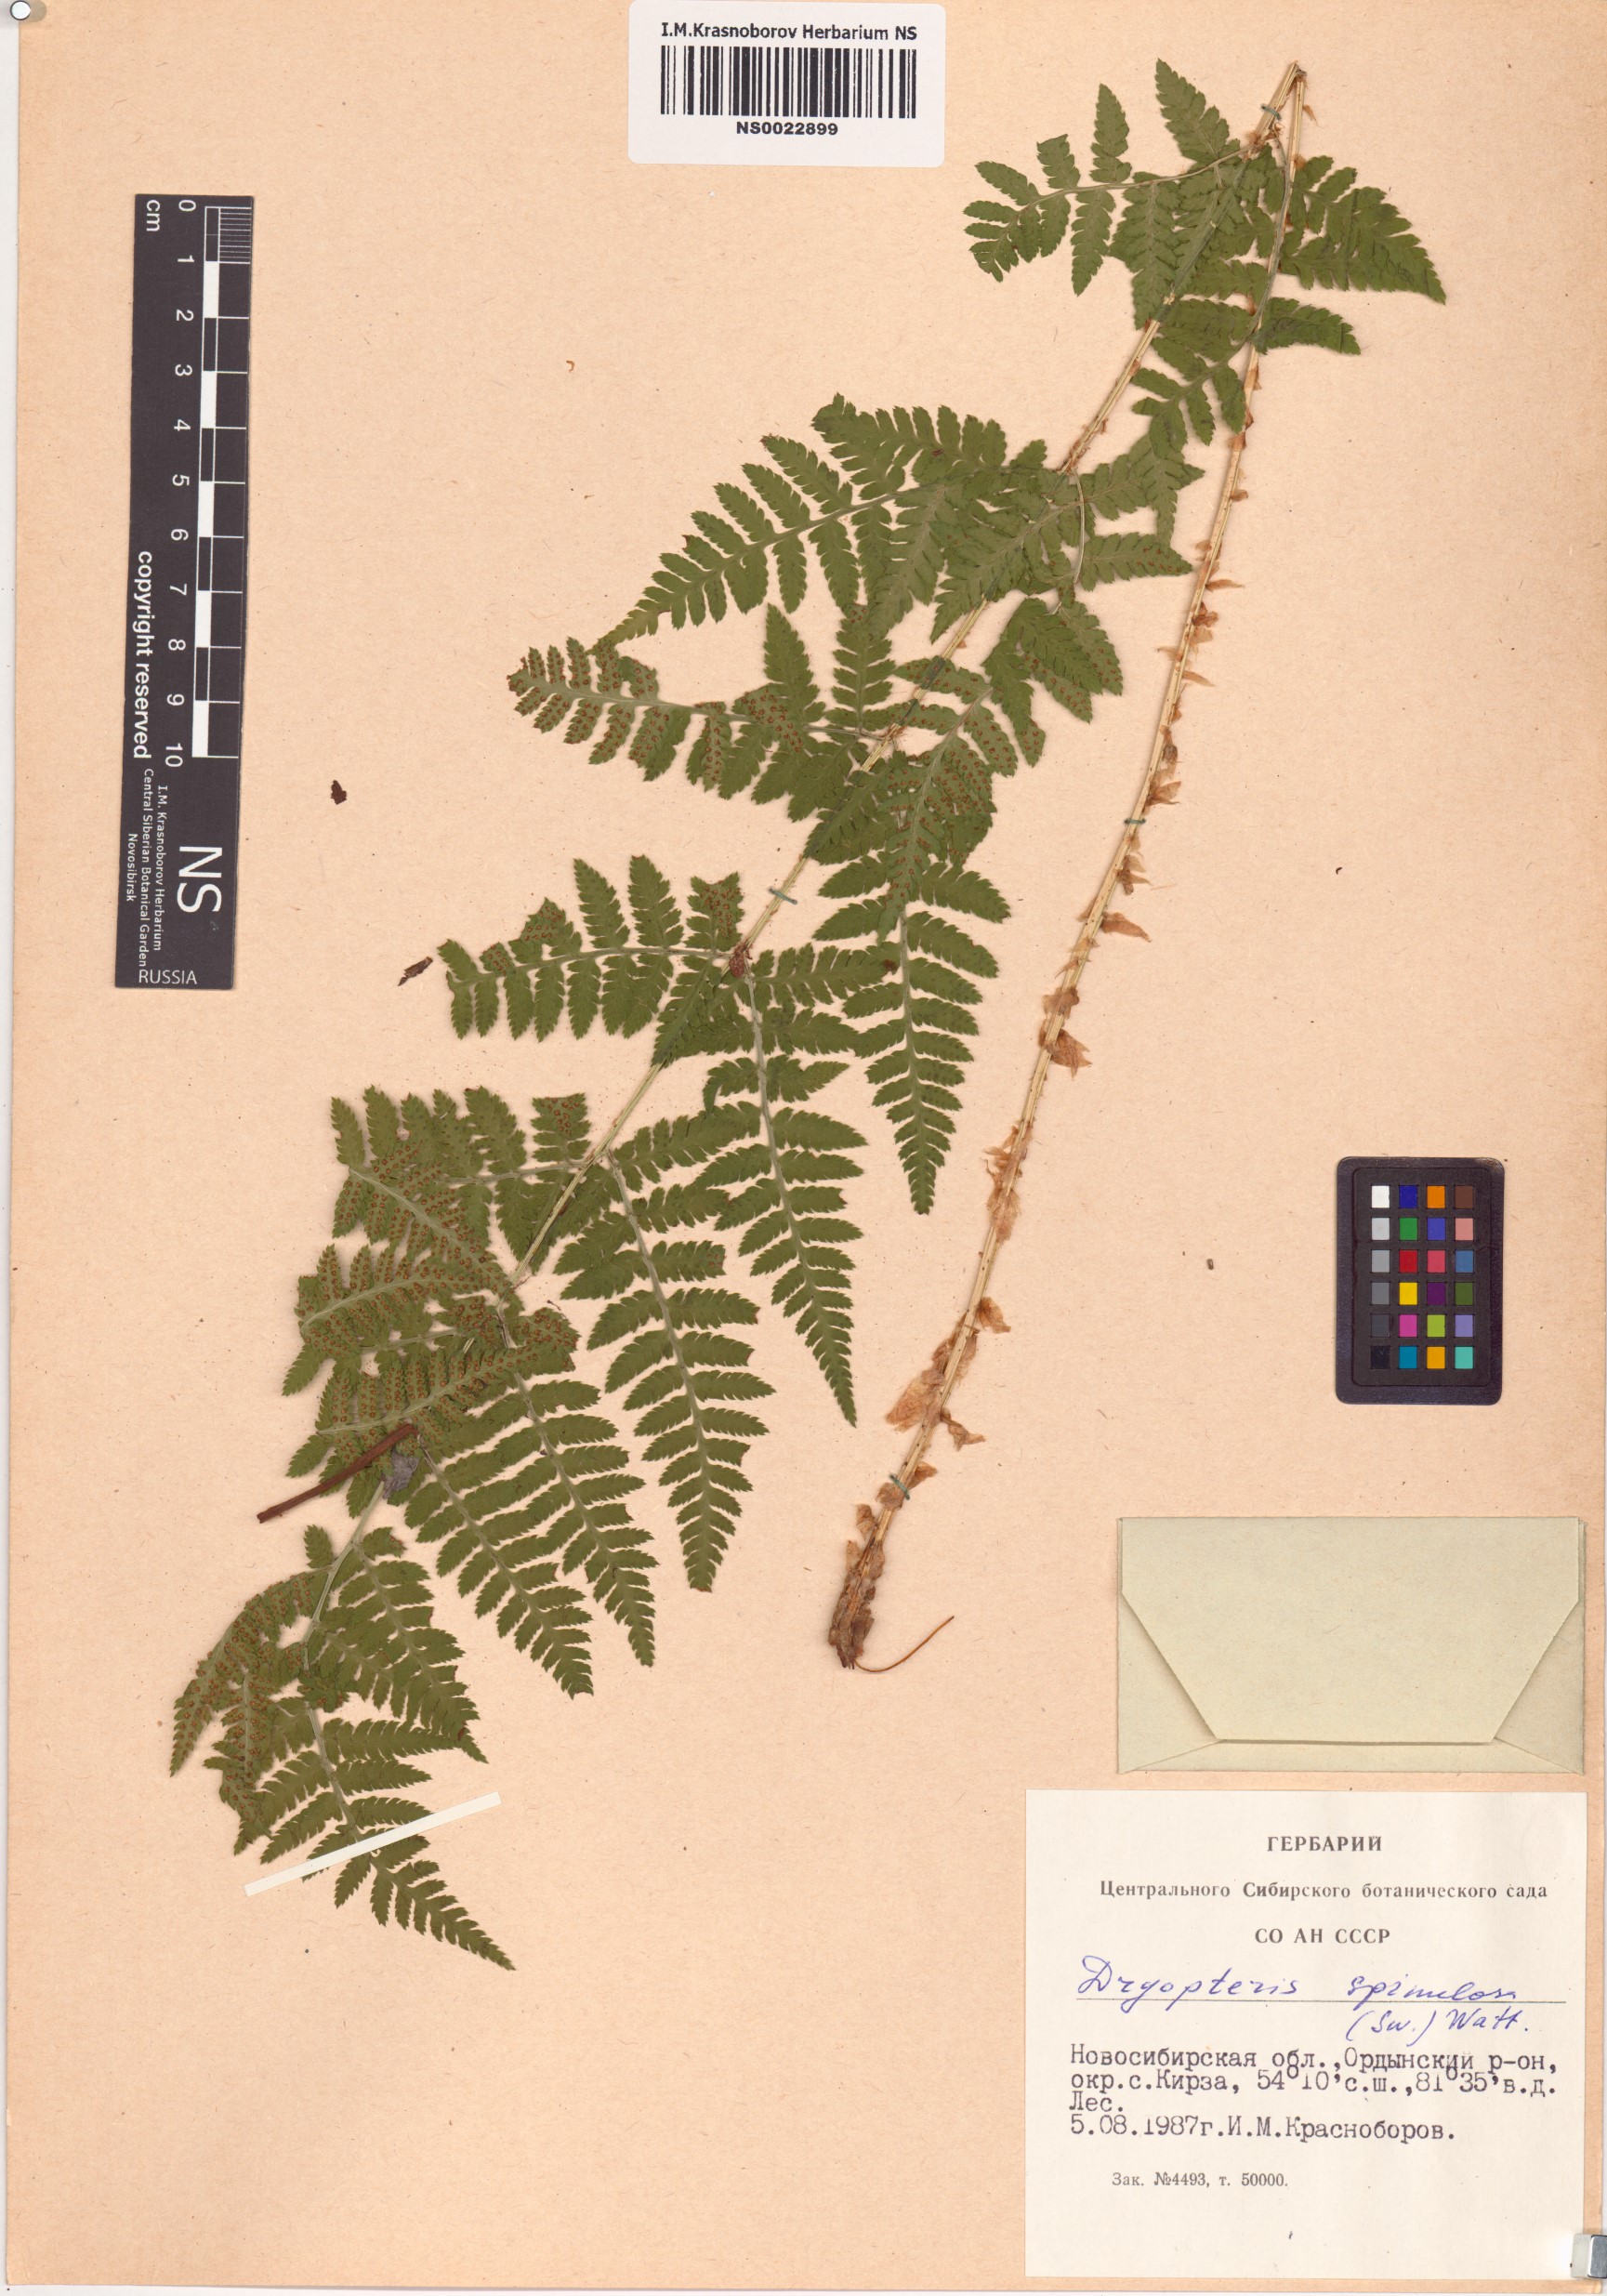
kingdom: Plantae
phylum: Tracheophyta
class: Polypodiopsida
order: Polypodiales
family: Dryopteridaceae
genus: Dryopteris
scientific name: Dryopteris carthusiana
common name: Narrow buckler-fern
